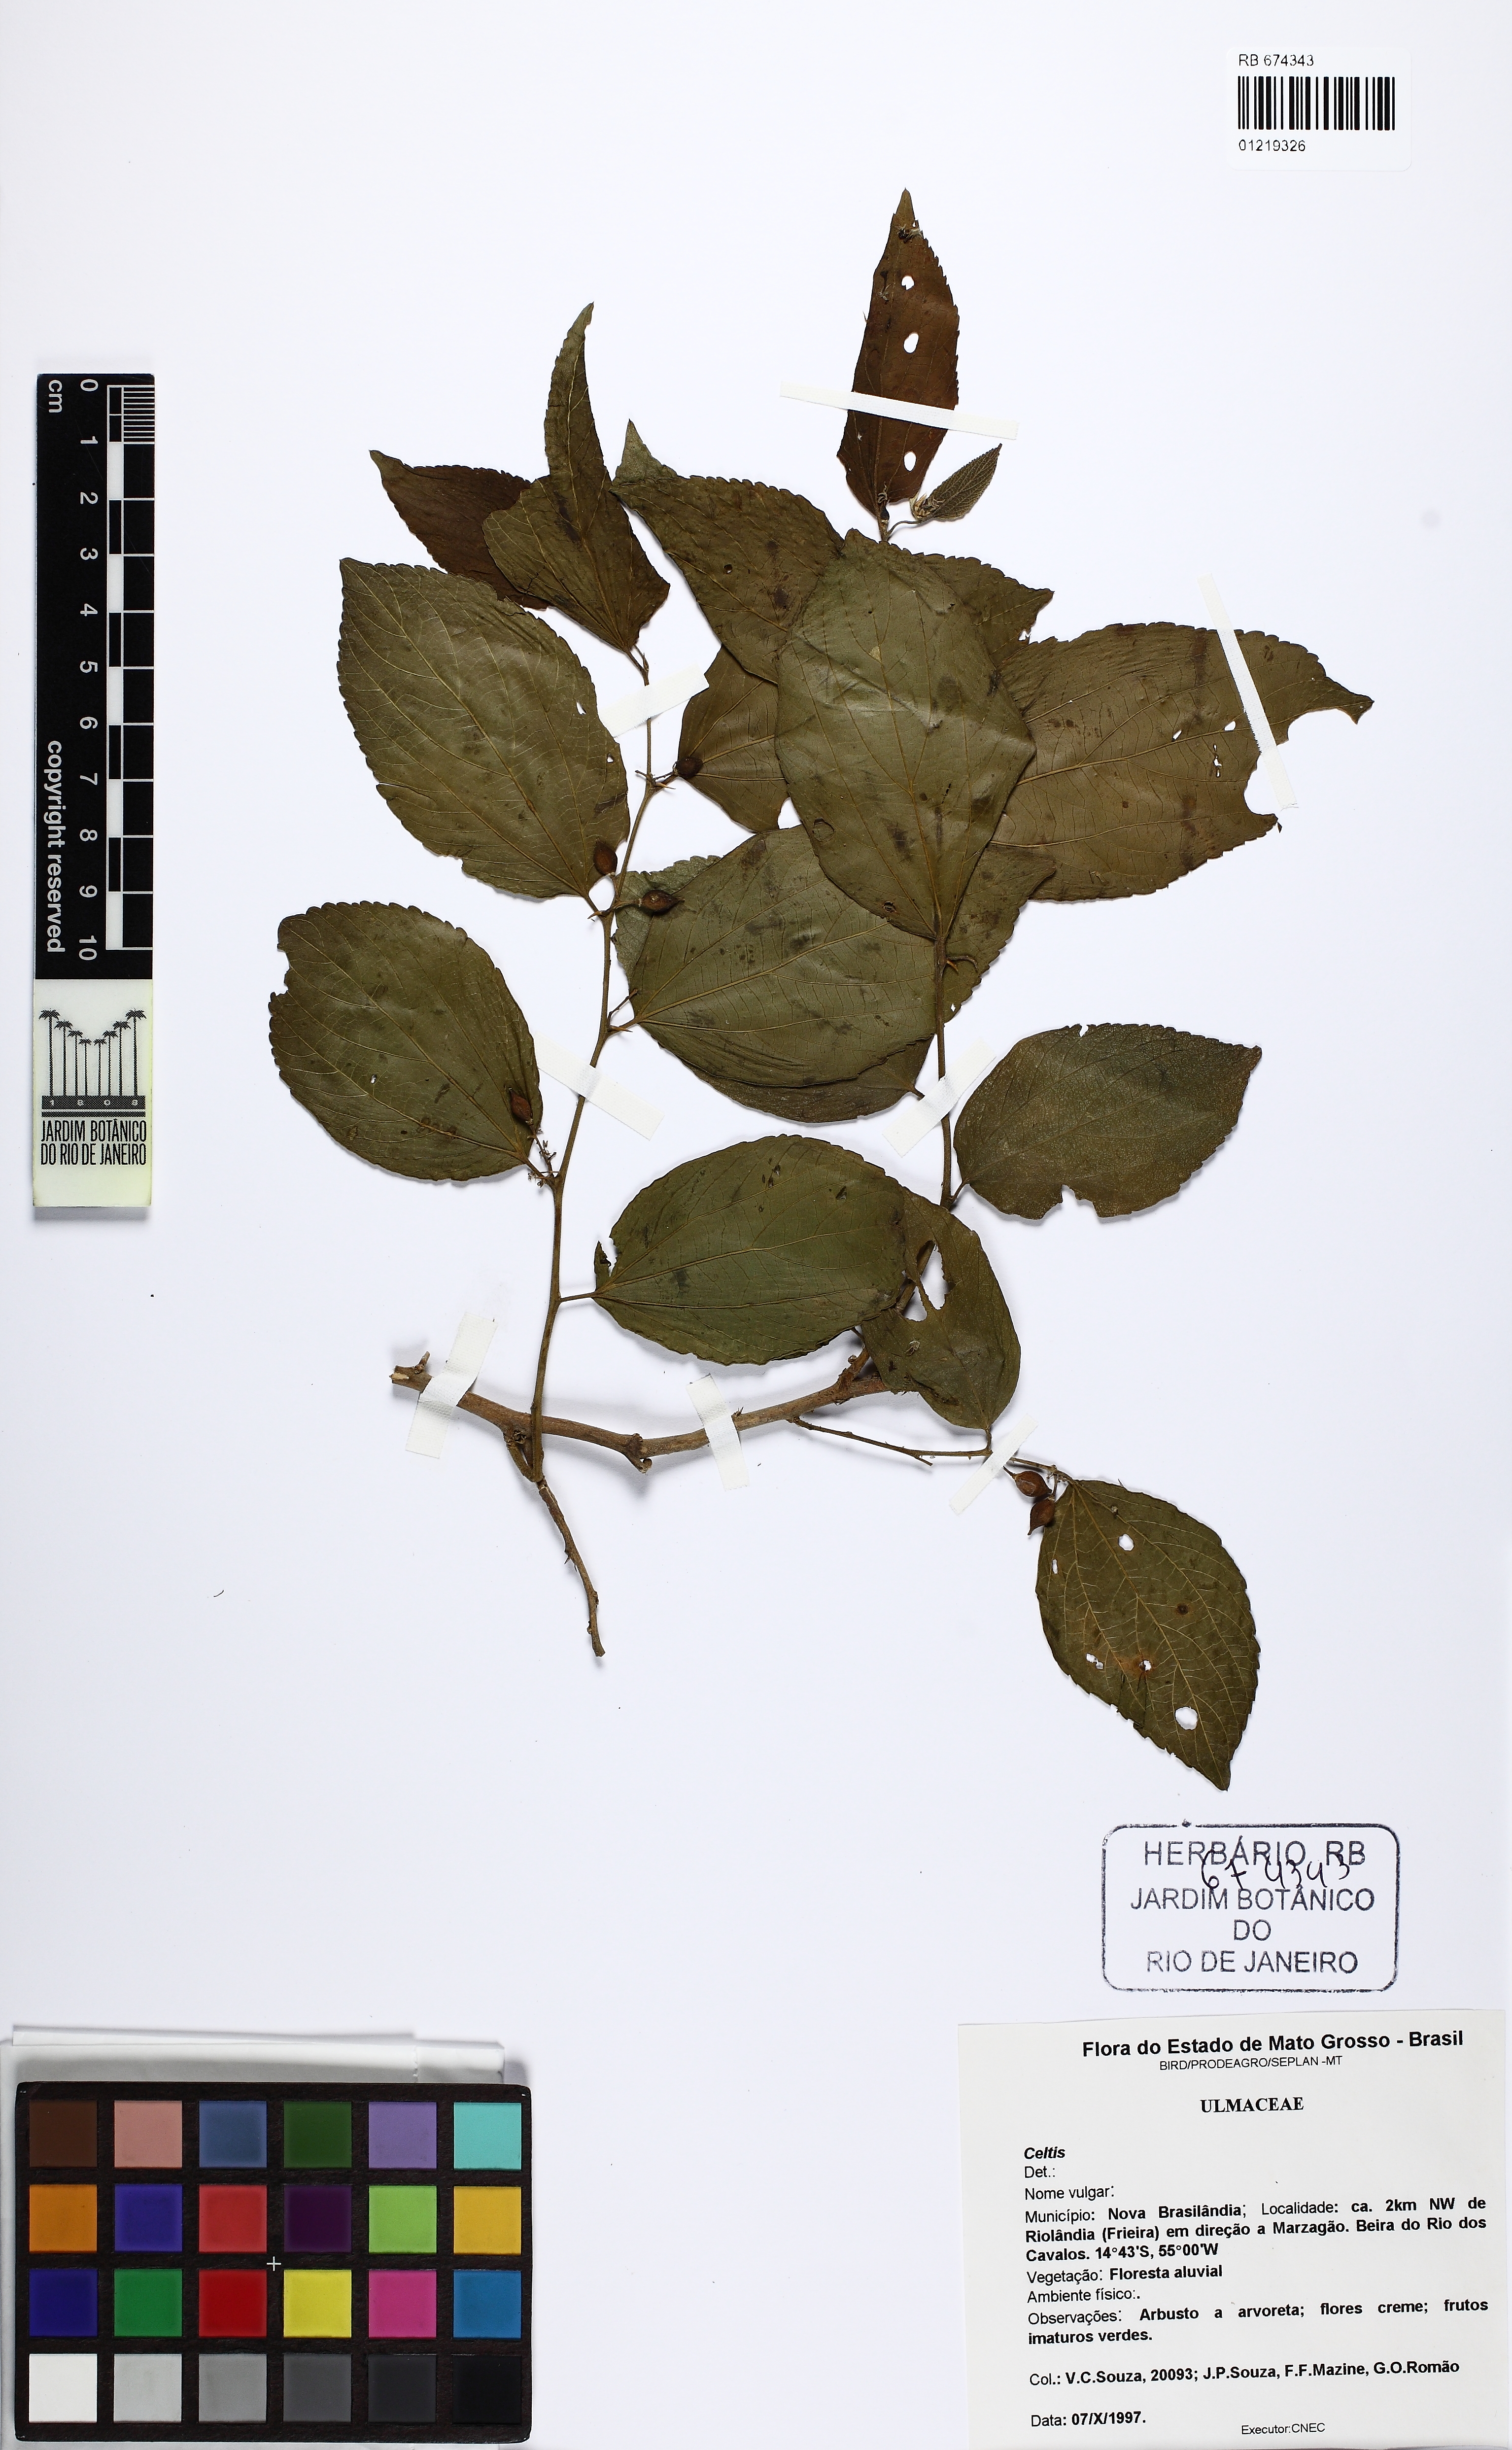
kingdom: Plantae
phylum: Tracheophyta
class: Magnoliopsida
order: Rosales
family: Cannabaceae
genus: Celtis
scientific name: Celtis
